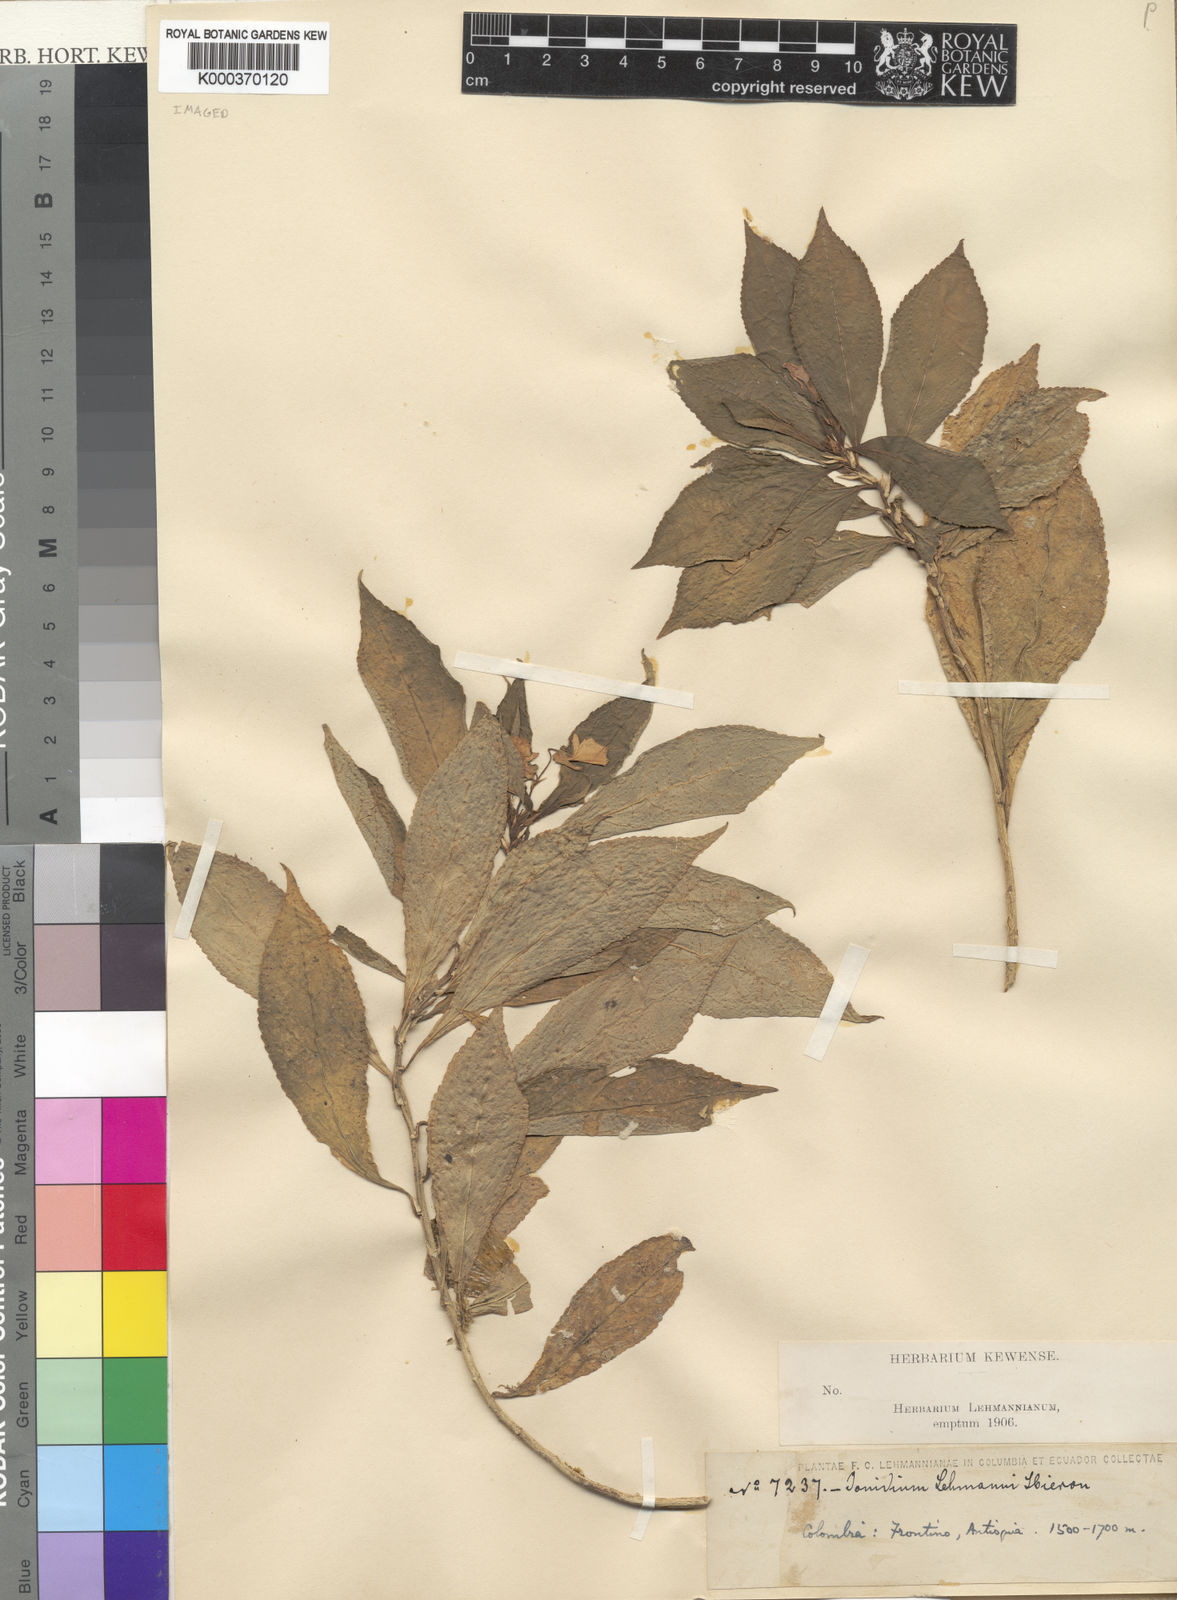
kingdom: Plantae
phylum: Tracheophyta
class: Magnoliopsida
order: Malpighiales
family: Violaceae
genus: Pombalia
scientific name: Pombalia lehmannii
